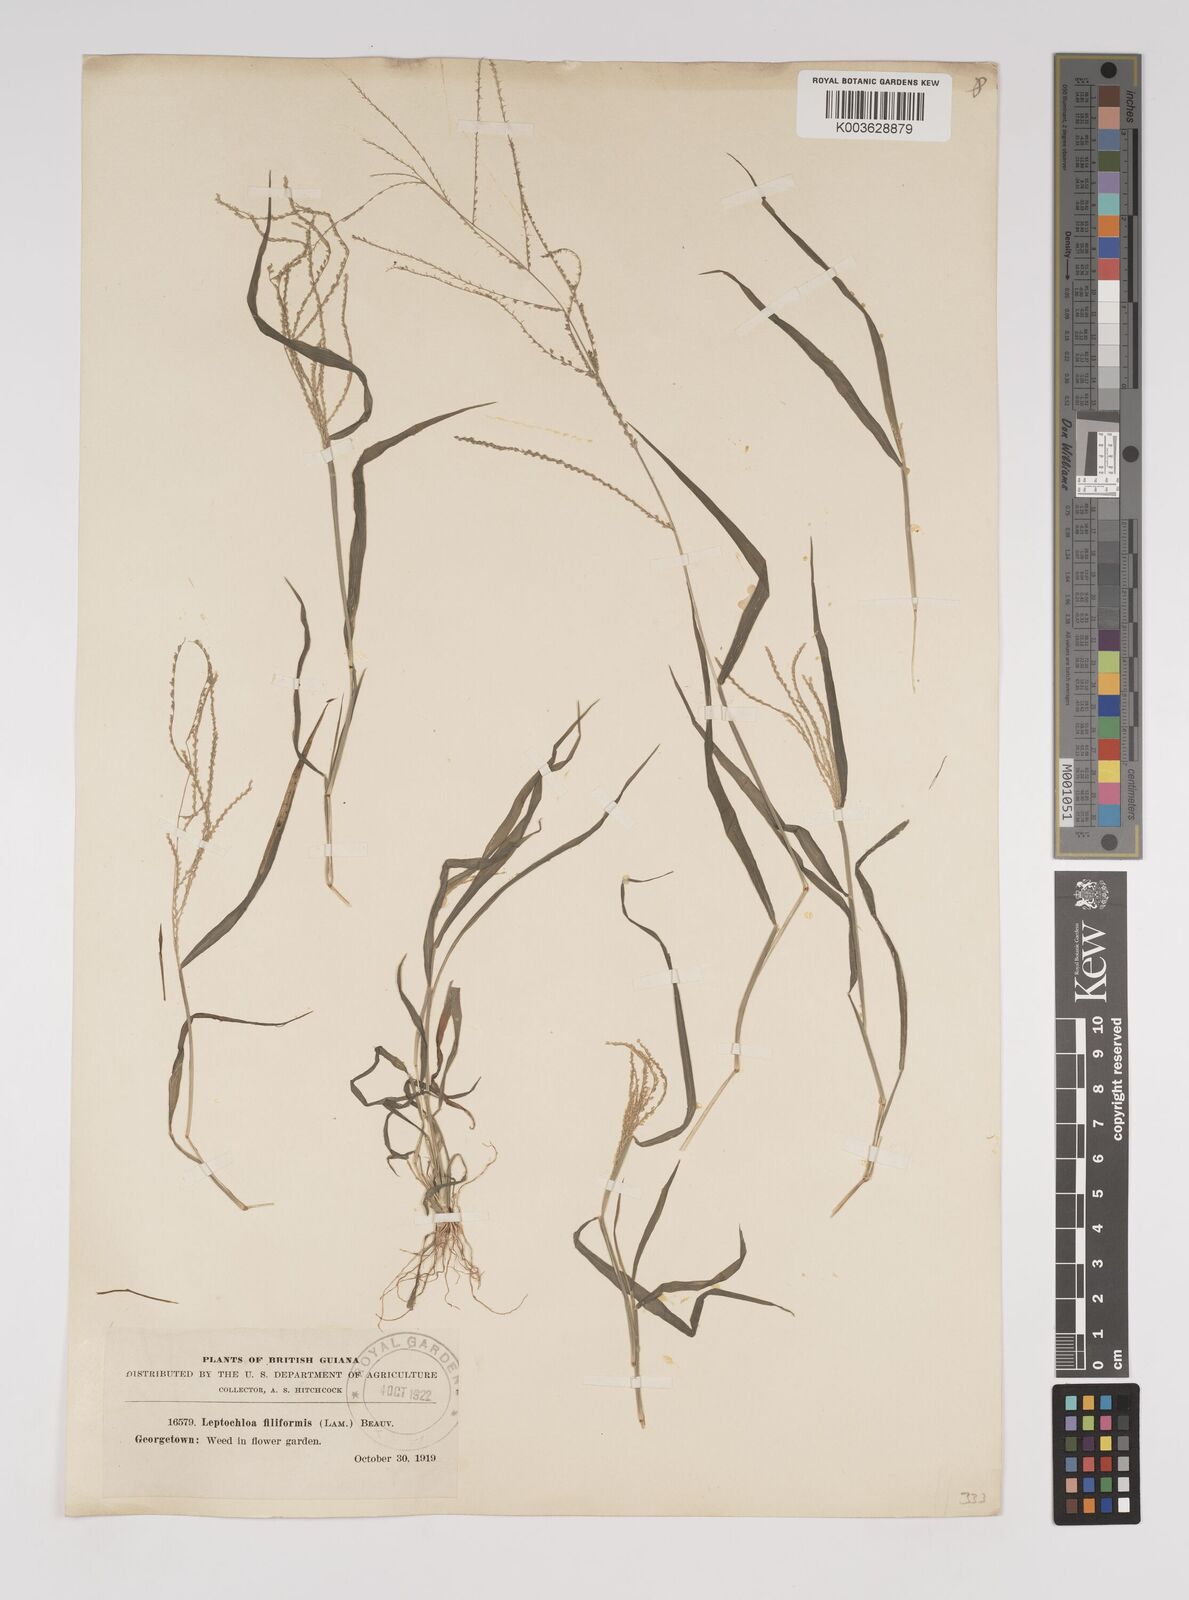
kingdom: Plantae
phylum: Tracheophyta
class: Liliopsida
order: Poales
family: Poaceae
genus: Leptochloa
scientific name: Leptochloa panicea
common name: Mucronate sprangletop
